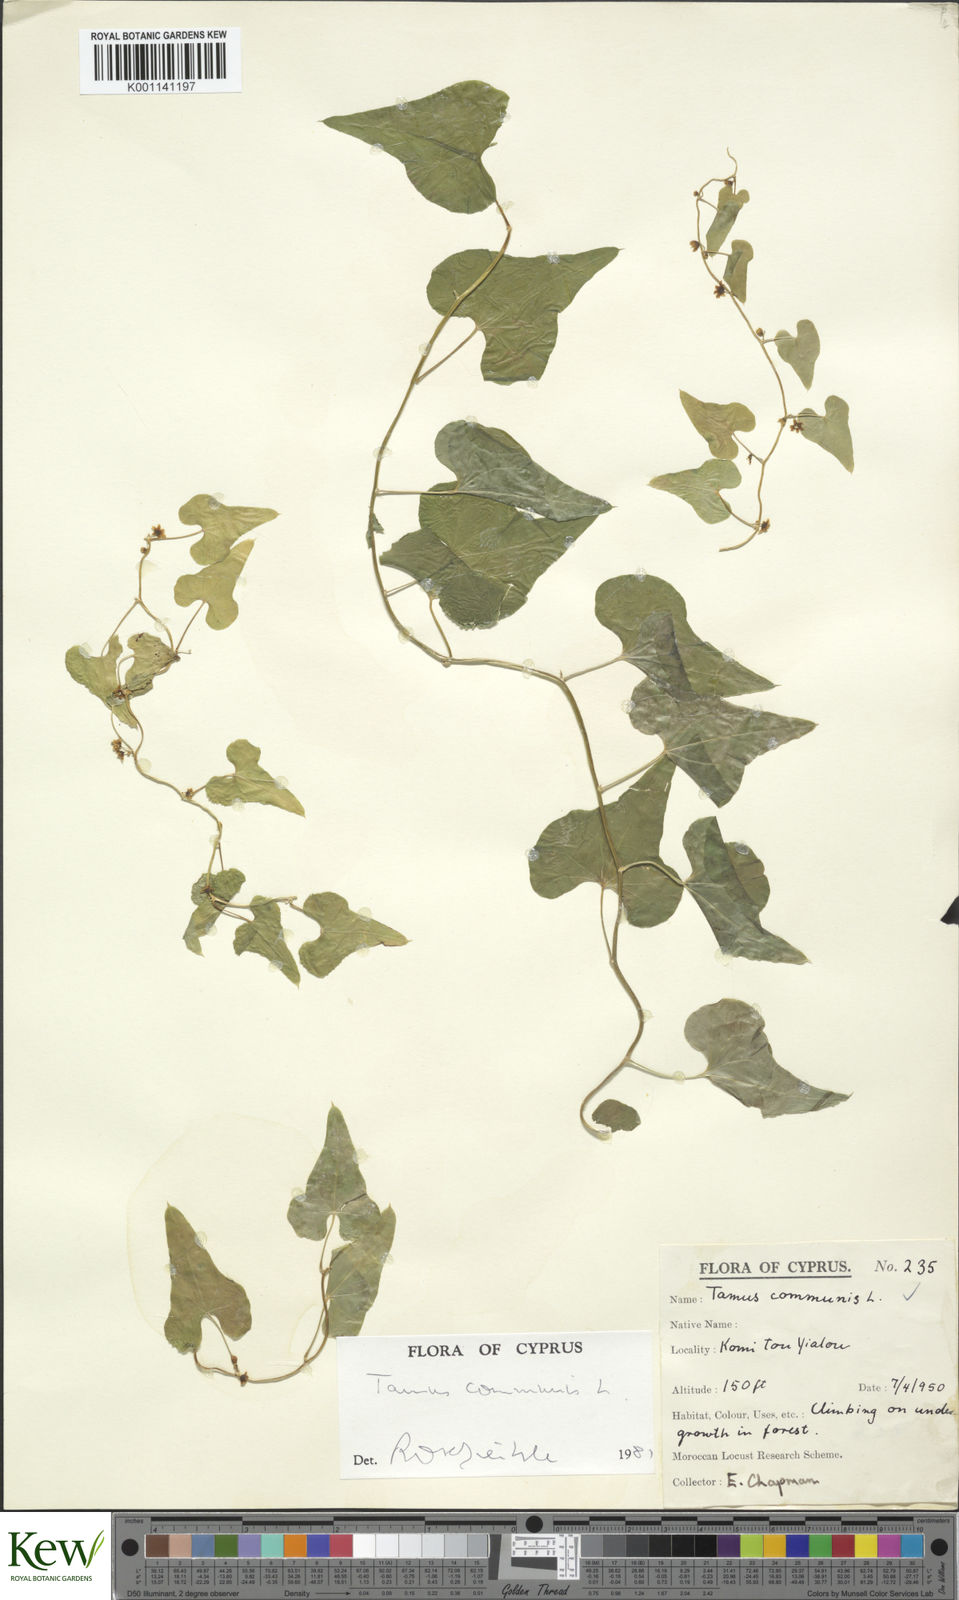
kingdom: Plantae
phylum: Tracheophyta
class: Liliopsida
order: Dioscoreales
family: Dioscoreaceae
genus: Dioscorea
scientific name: Dioscorea communis
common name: Black-bindweed
